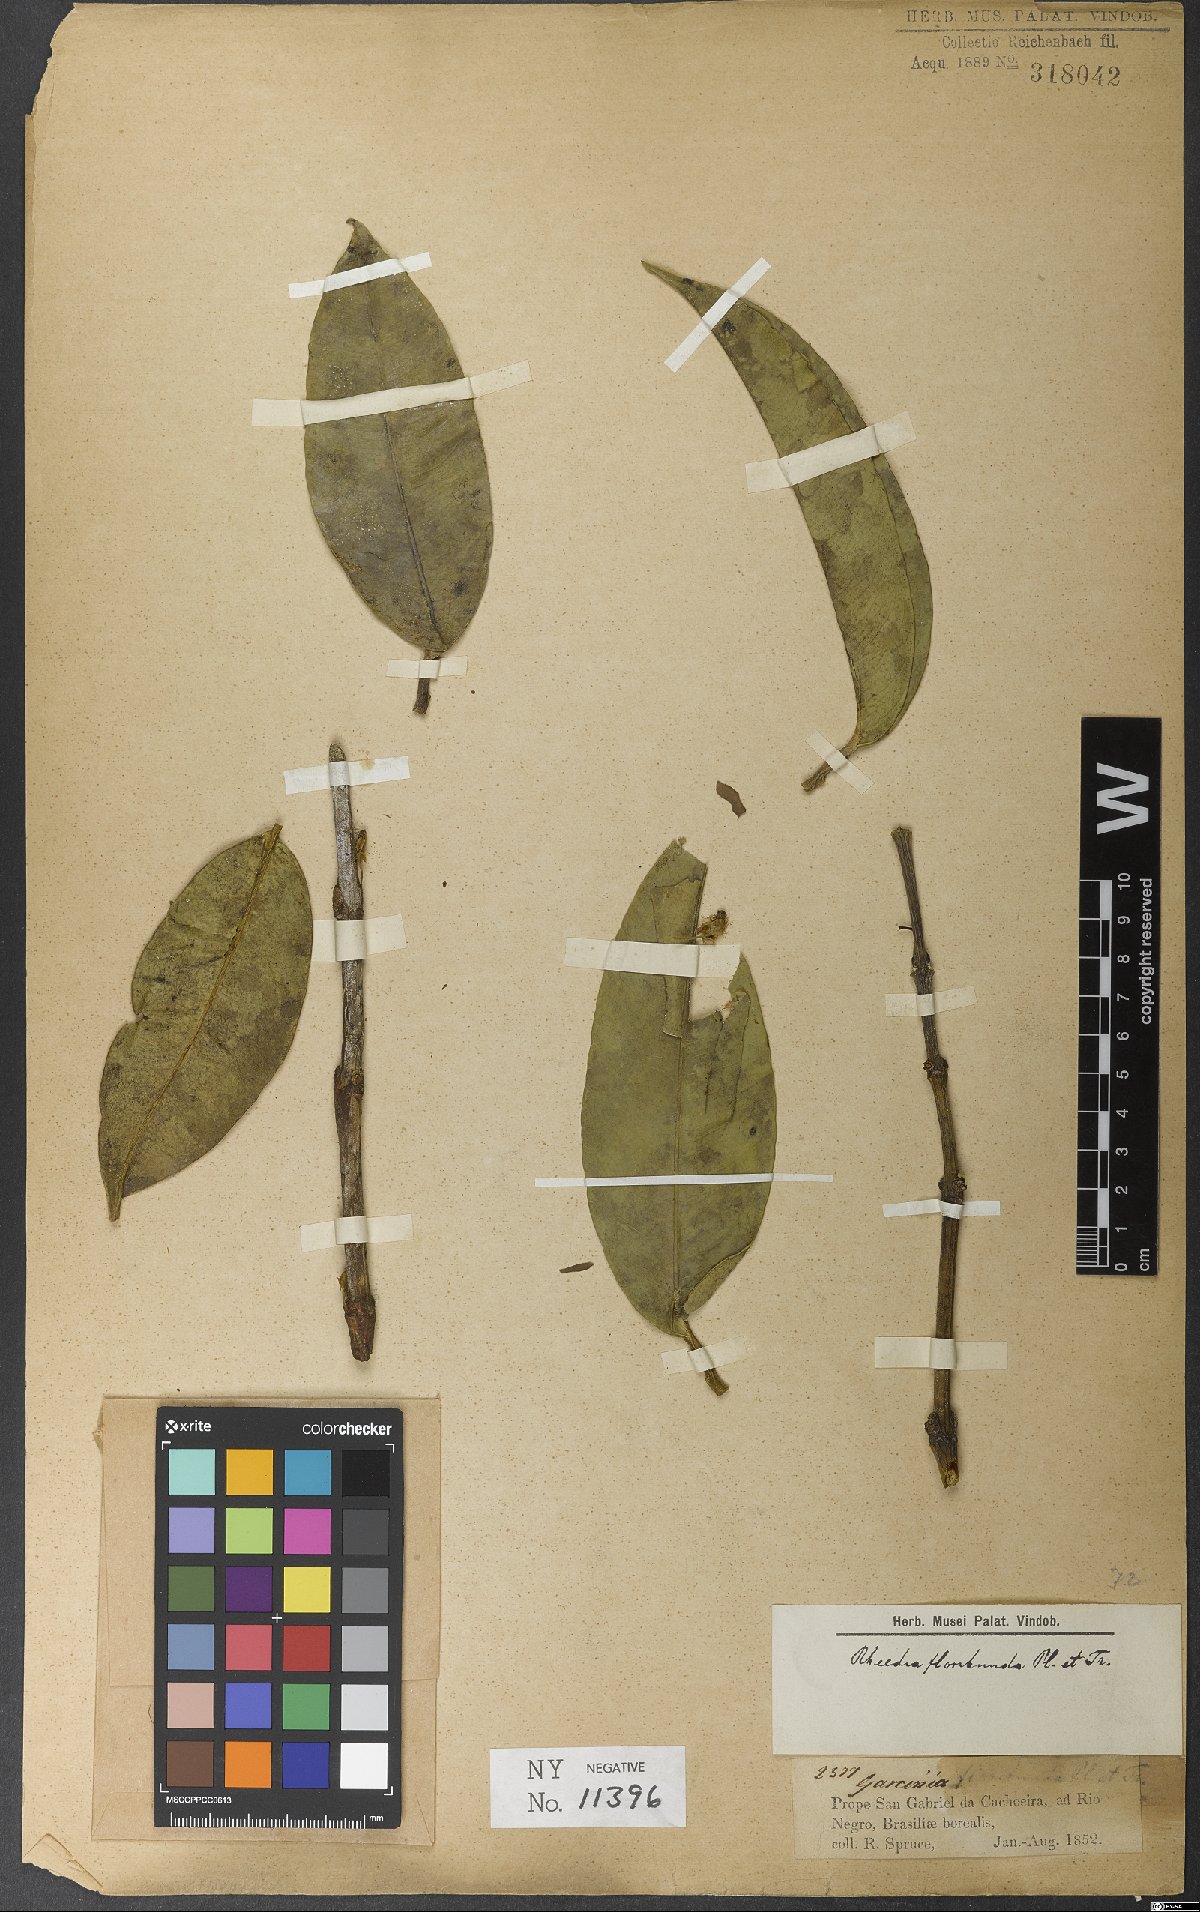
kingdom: Plantae
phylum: Tracheophyta
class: Magnoliopsida
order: Malpighiales
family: Clusiaceae
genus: Garcinia
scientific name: Garcinia madruno
